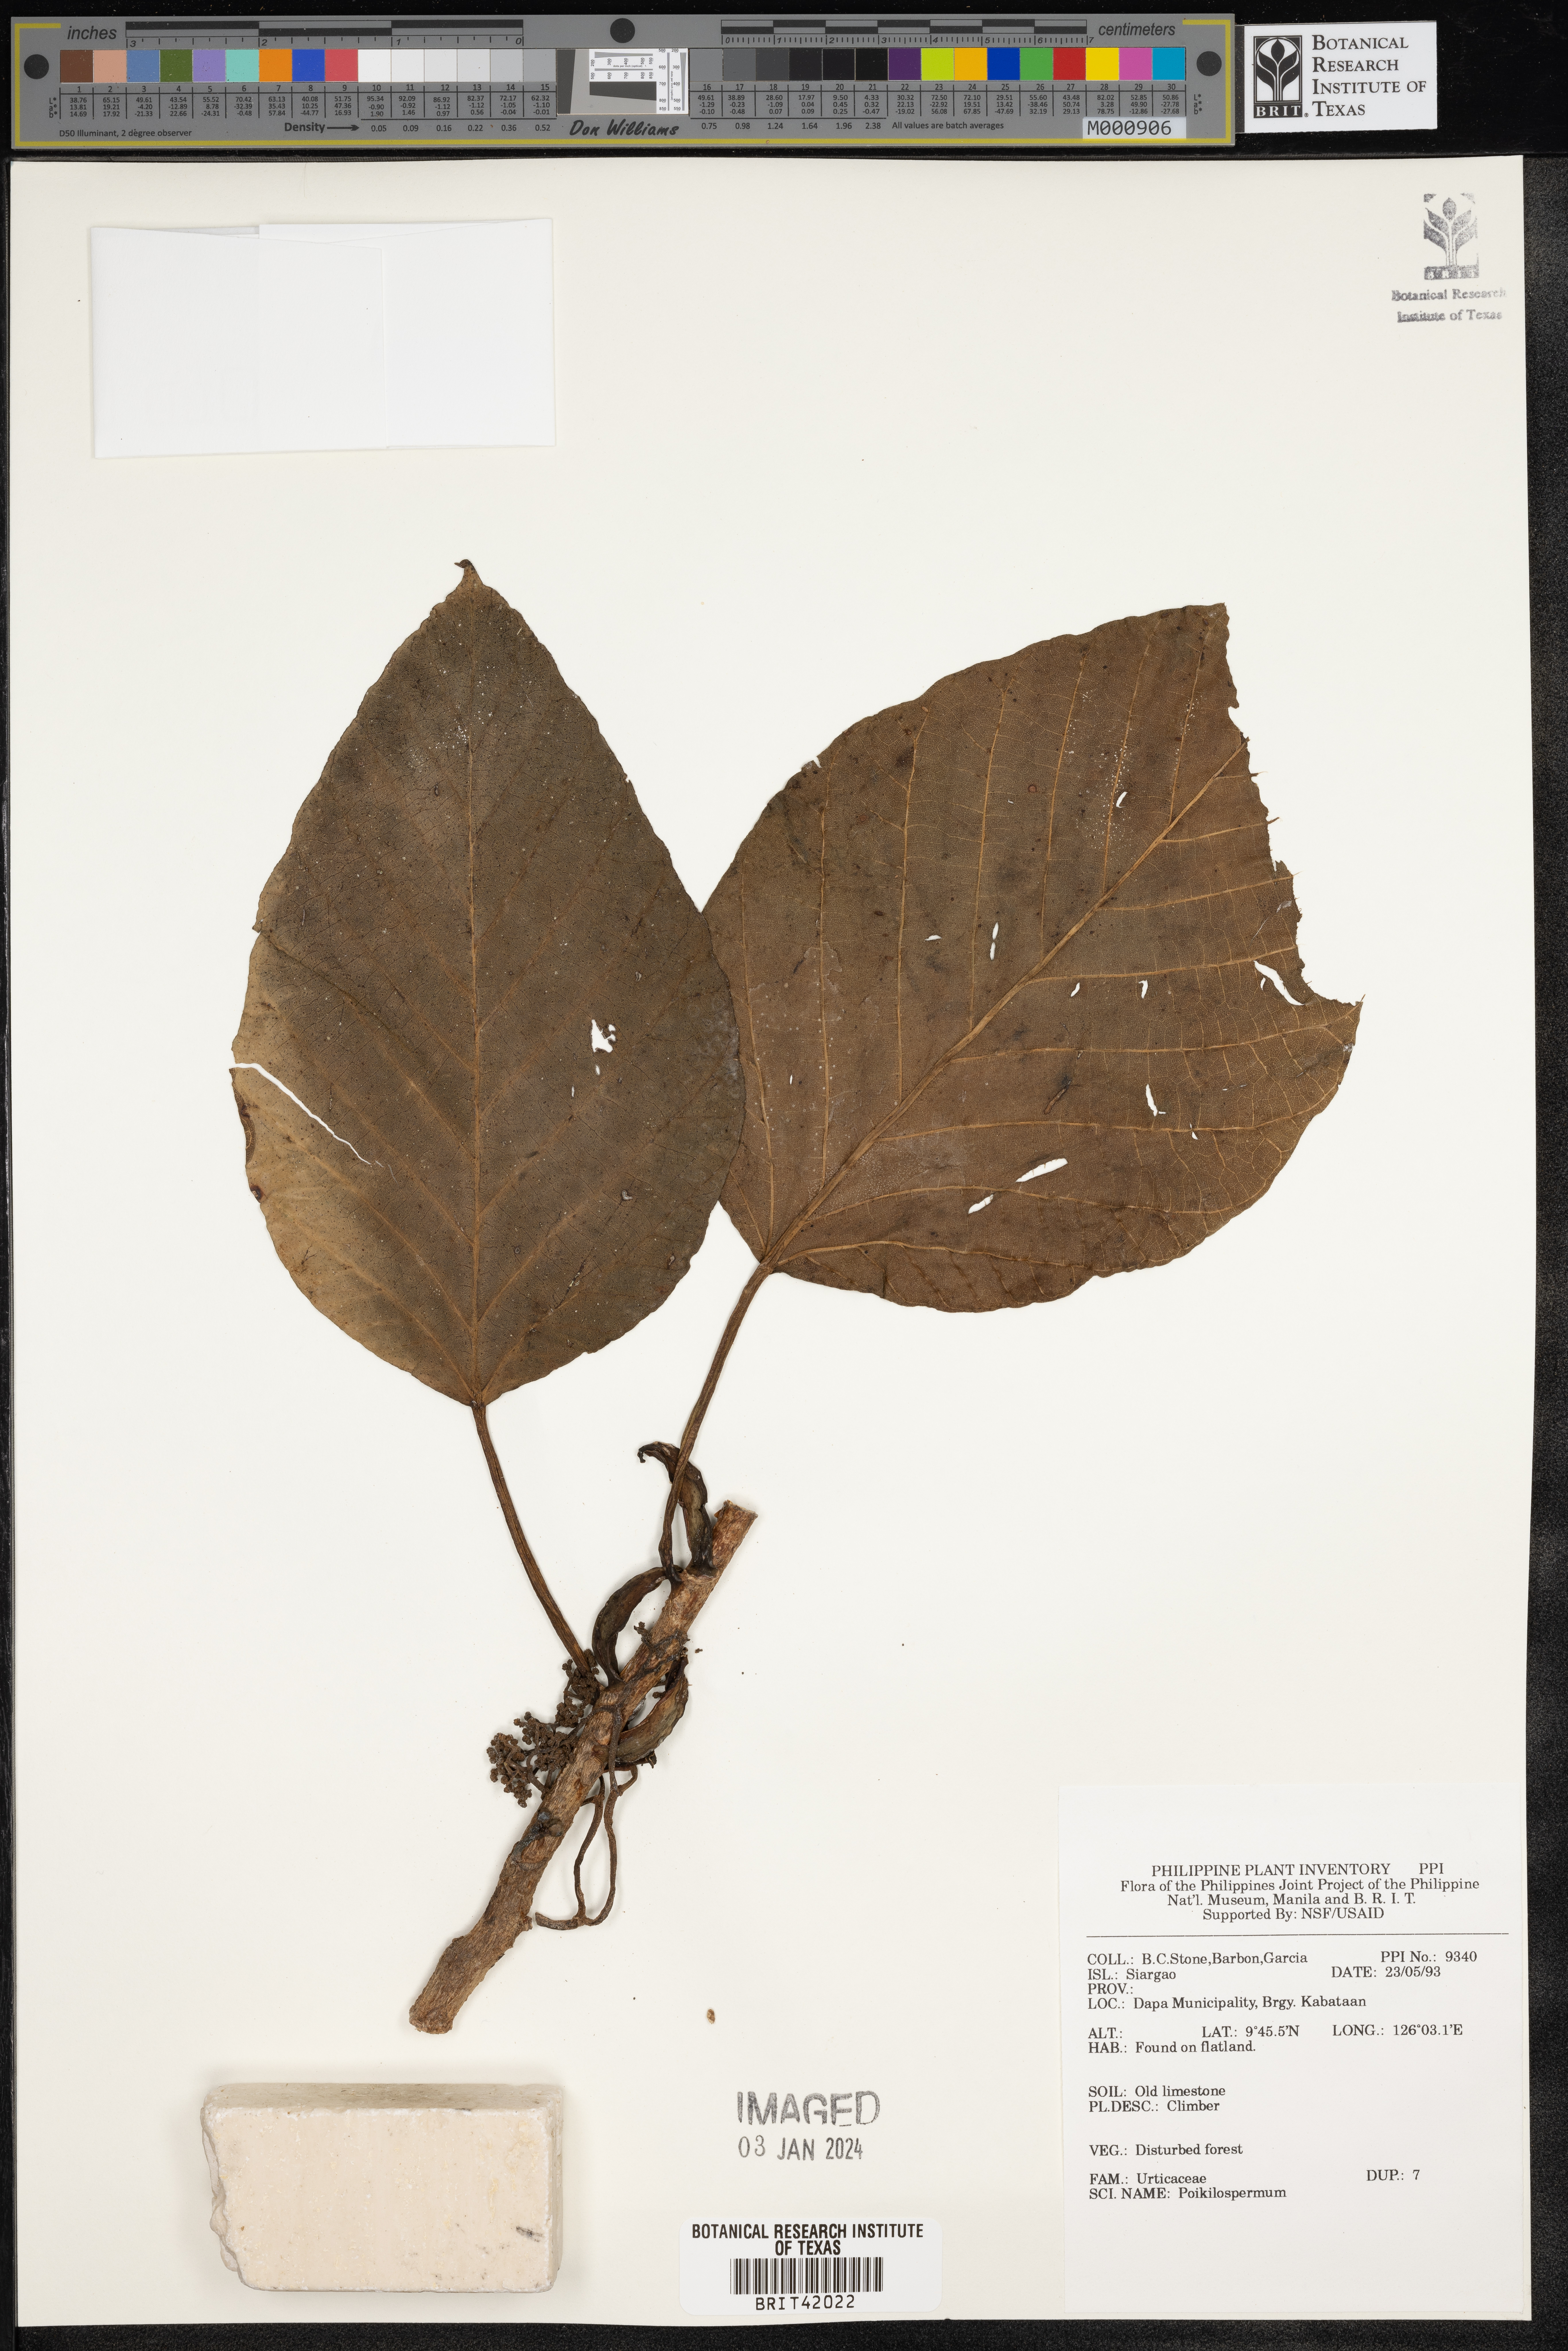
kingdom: Plantae
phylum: Tracheophyta
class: Magnoliopsida
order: Rosales
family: Urticaceae
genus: Poikilospermum
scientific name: Poikilospermum
